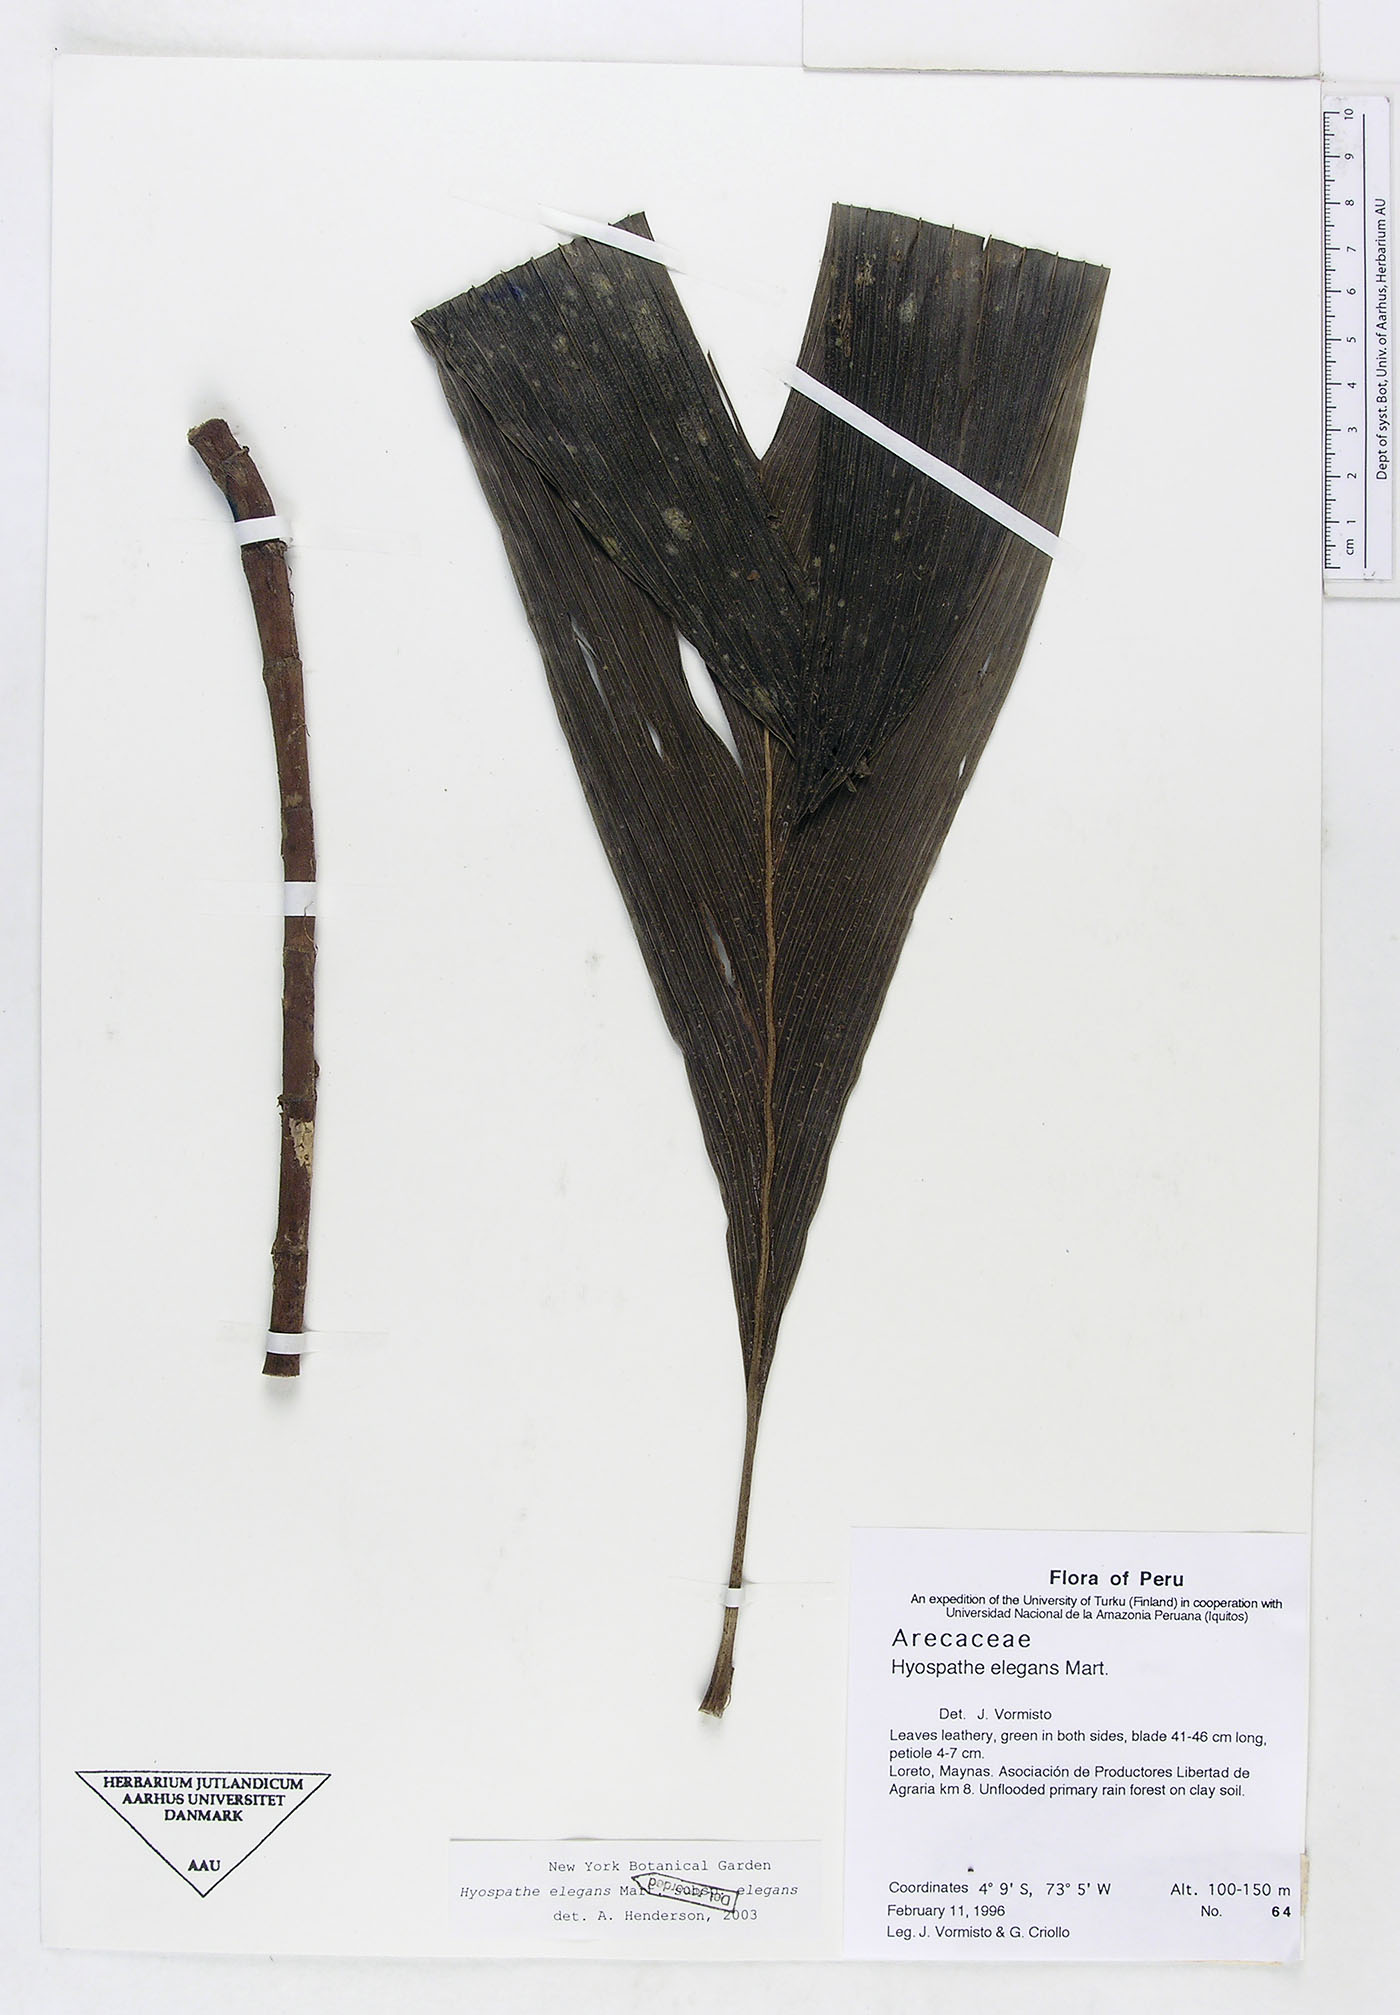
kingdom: Plantae
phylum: Tracheophyta
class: Liliopsida
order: Arecales
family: Arecaceae
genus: Hyospathe
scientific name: Hyospathe elegans
